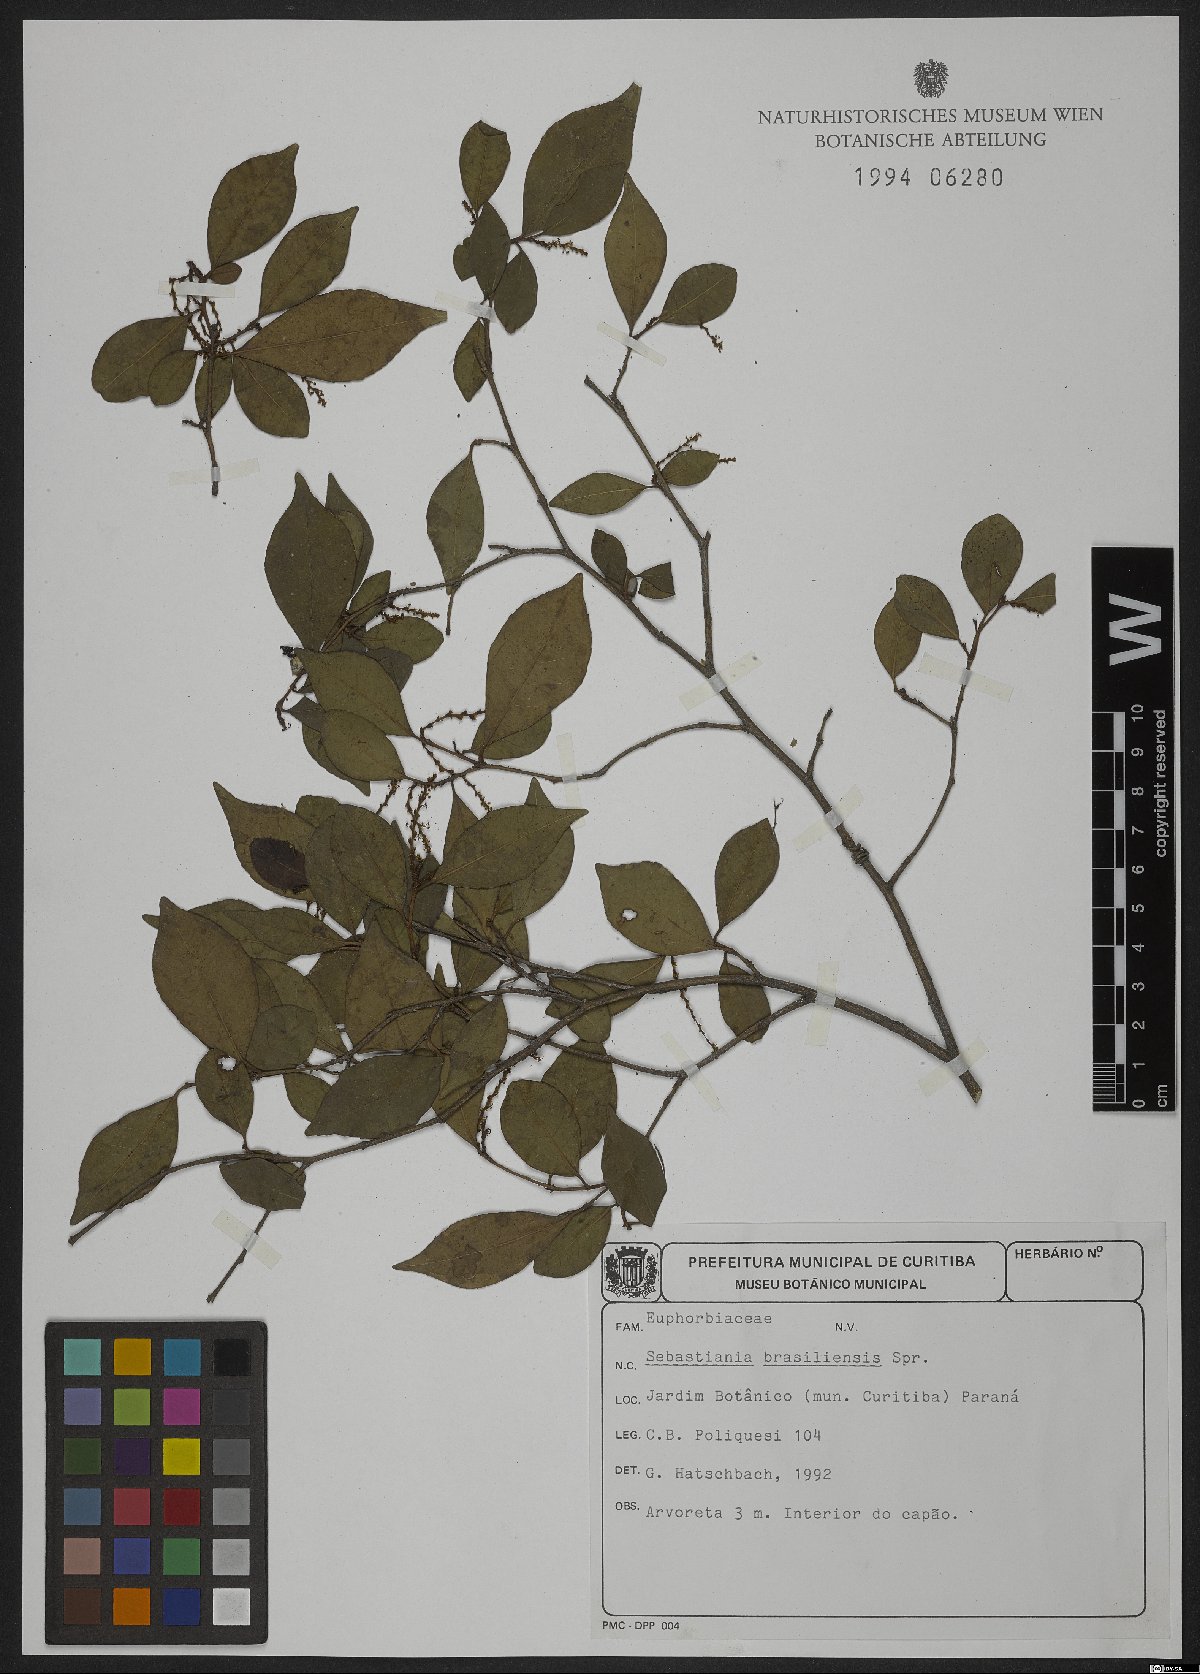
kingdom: Plantae
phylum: Tracheophyta
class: Magnoliopsida
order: Malpighiales
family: Euphorbiaceae
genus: Sebastiania
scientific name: Sebastiania brasiliensis
